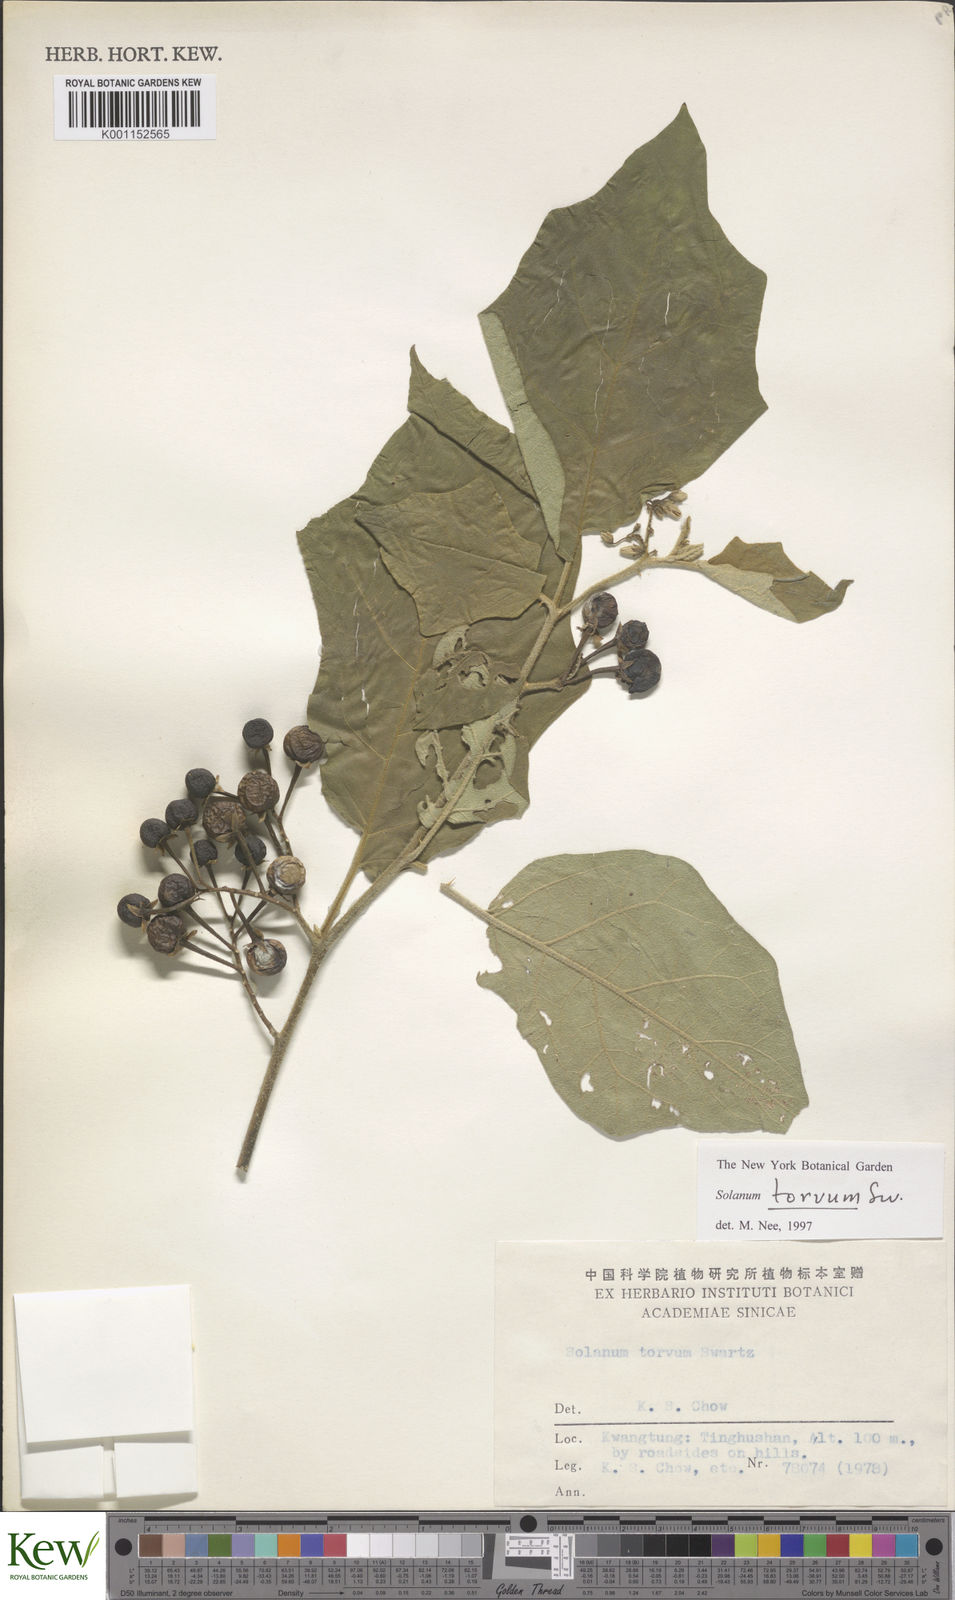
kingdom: Plantae
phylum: Tracheophyta
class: Magnoliopsida
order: Solanales
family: Solanaceae
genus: Solanum
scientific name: Solanum torvum
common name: Turkey berry
